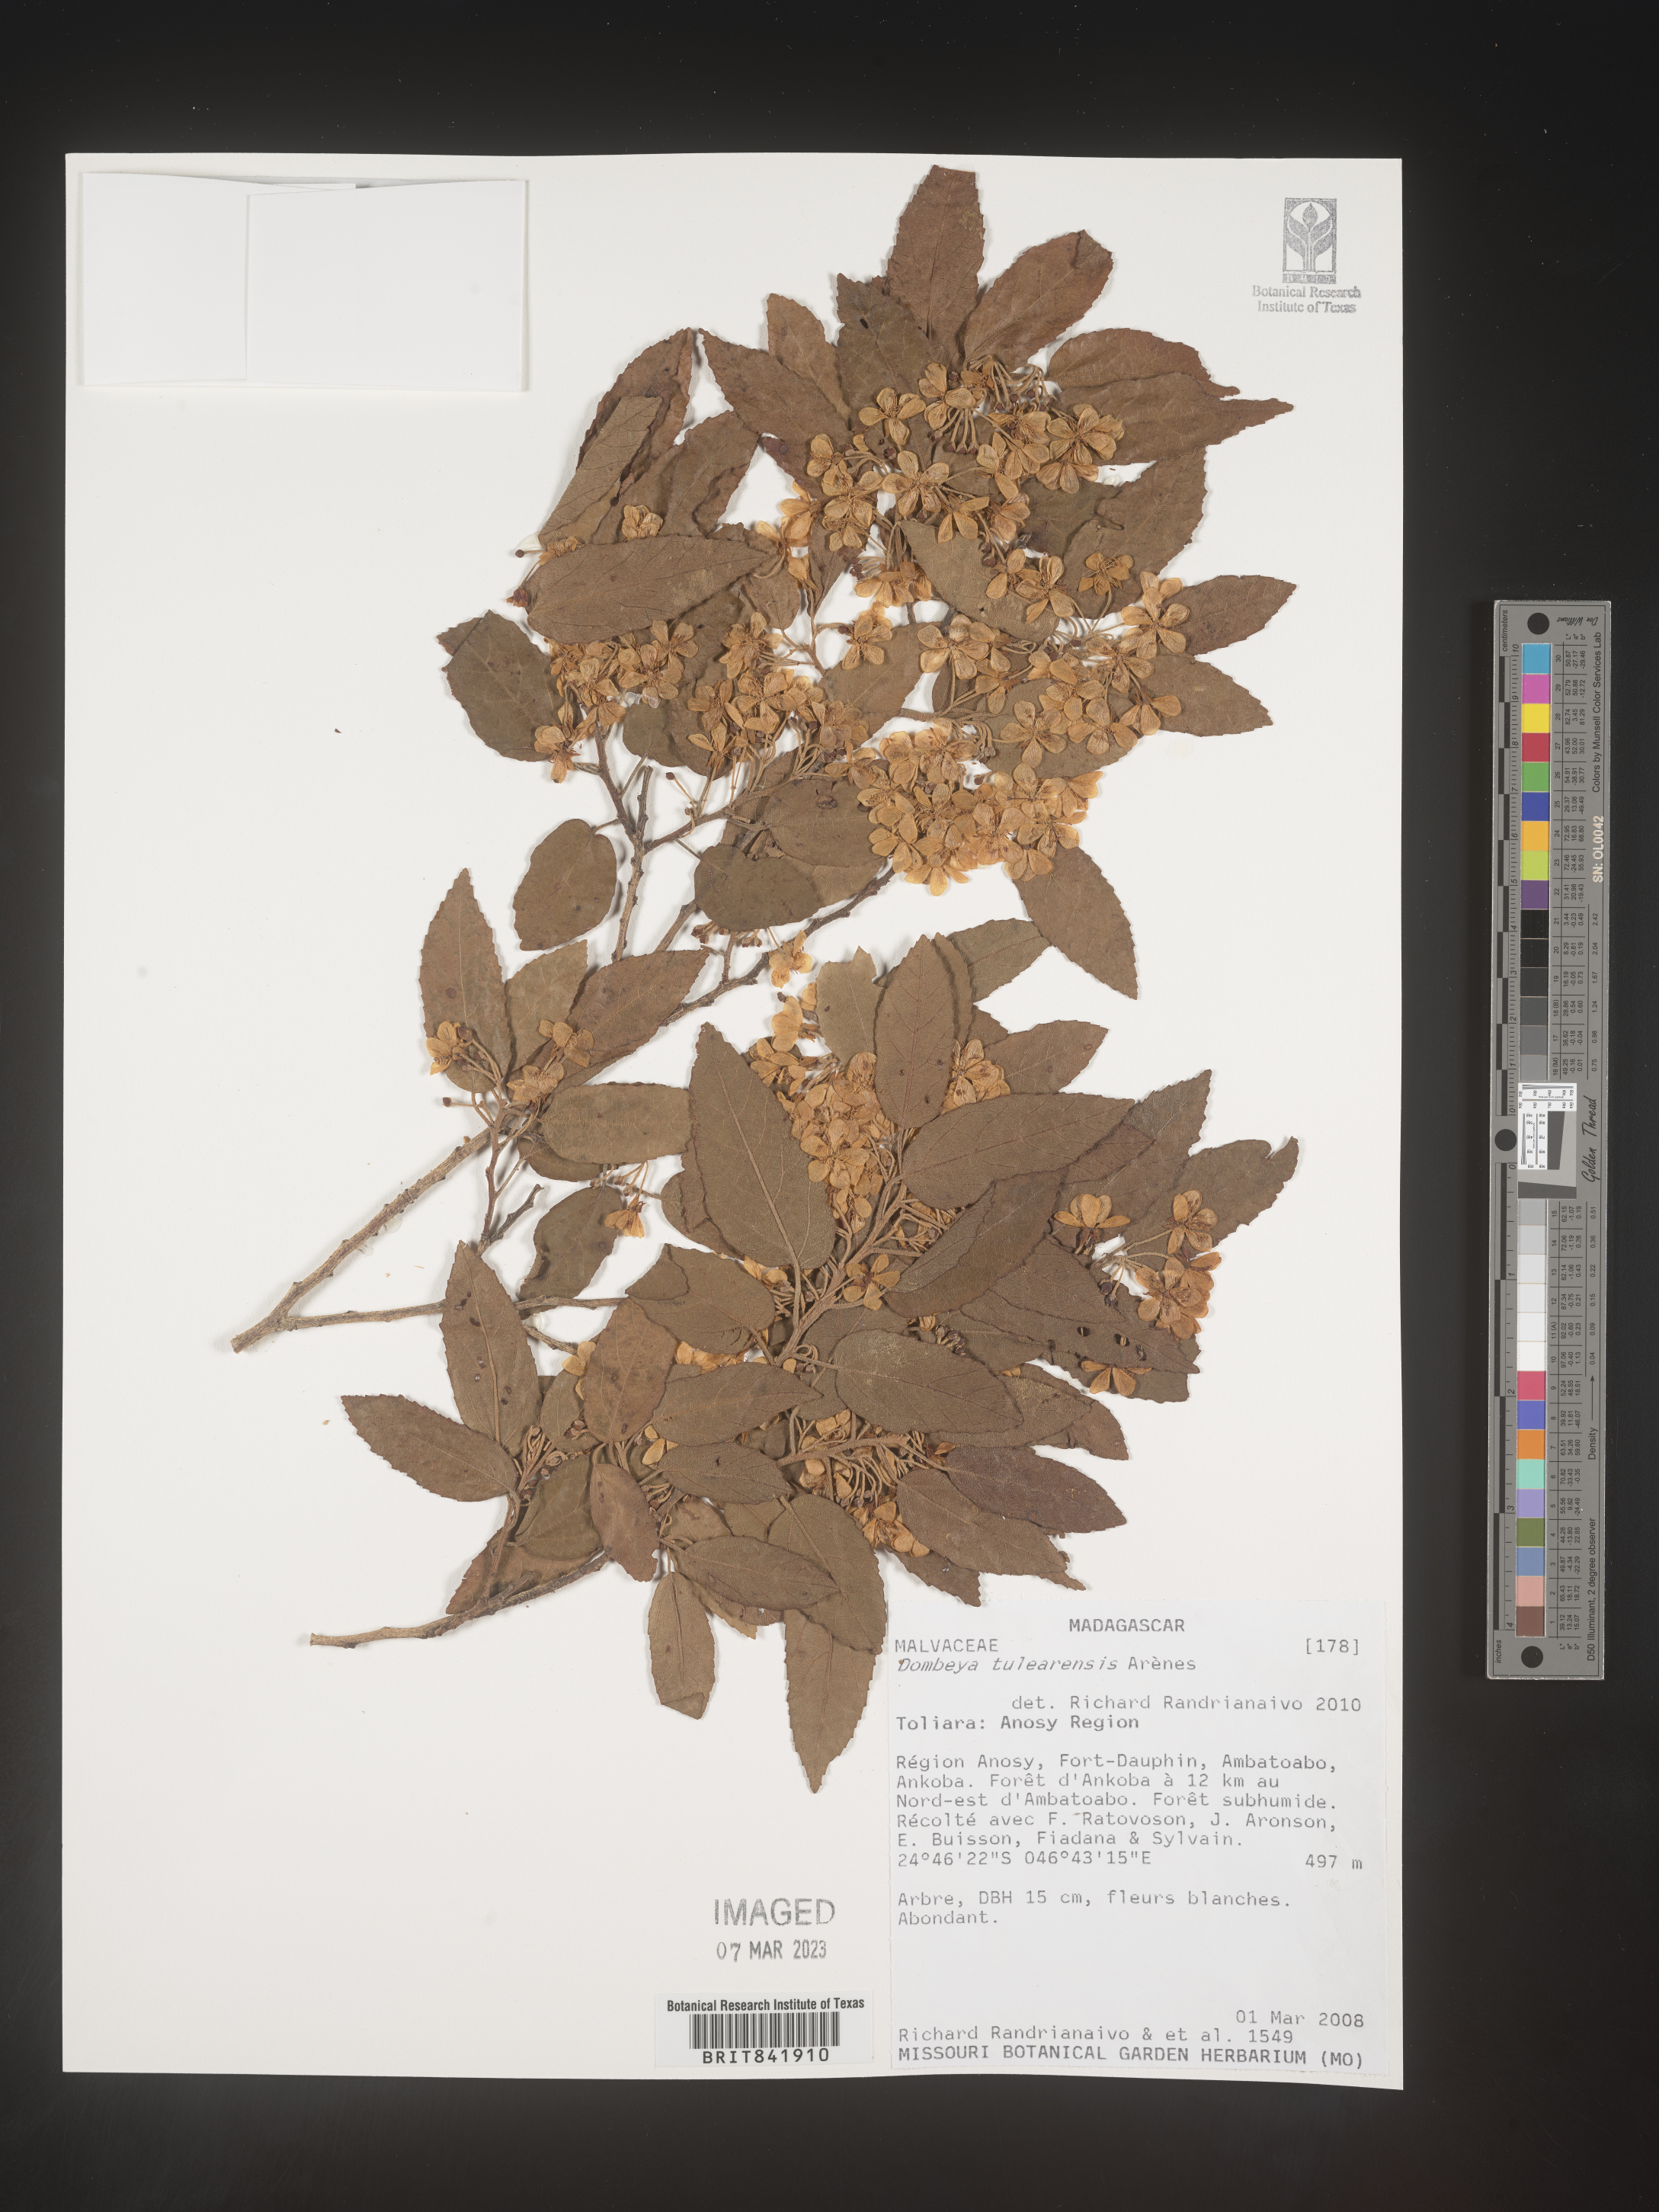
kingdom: Plantae
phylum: Tracheophyta
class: Magnoliopsida
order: Malvales
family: Malvaceae
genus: Dombeya
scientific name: Dombeya tulearensis
